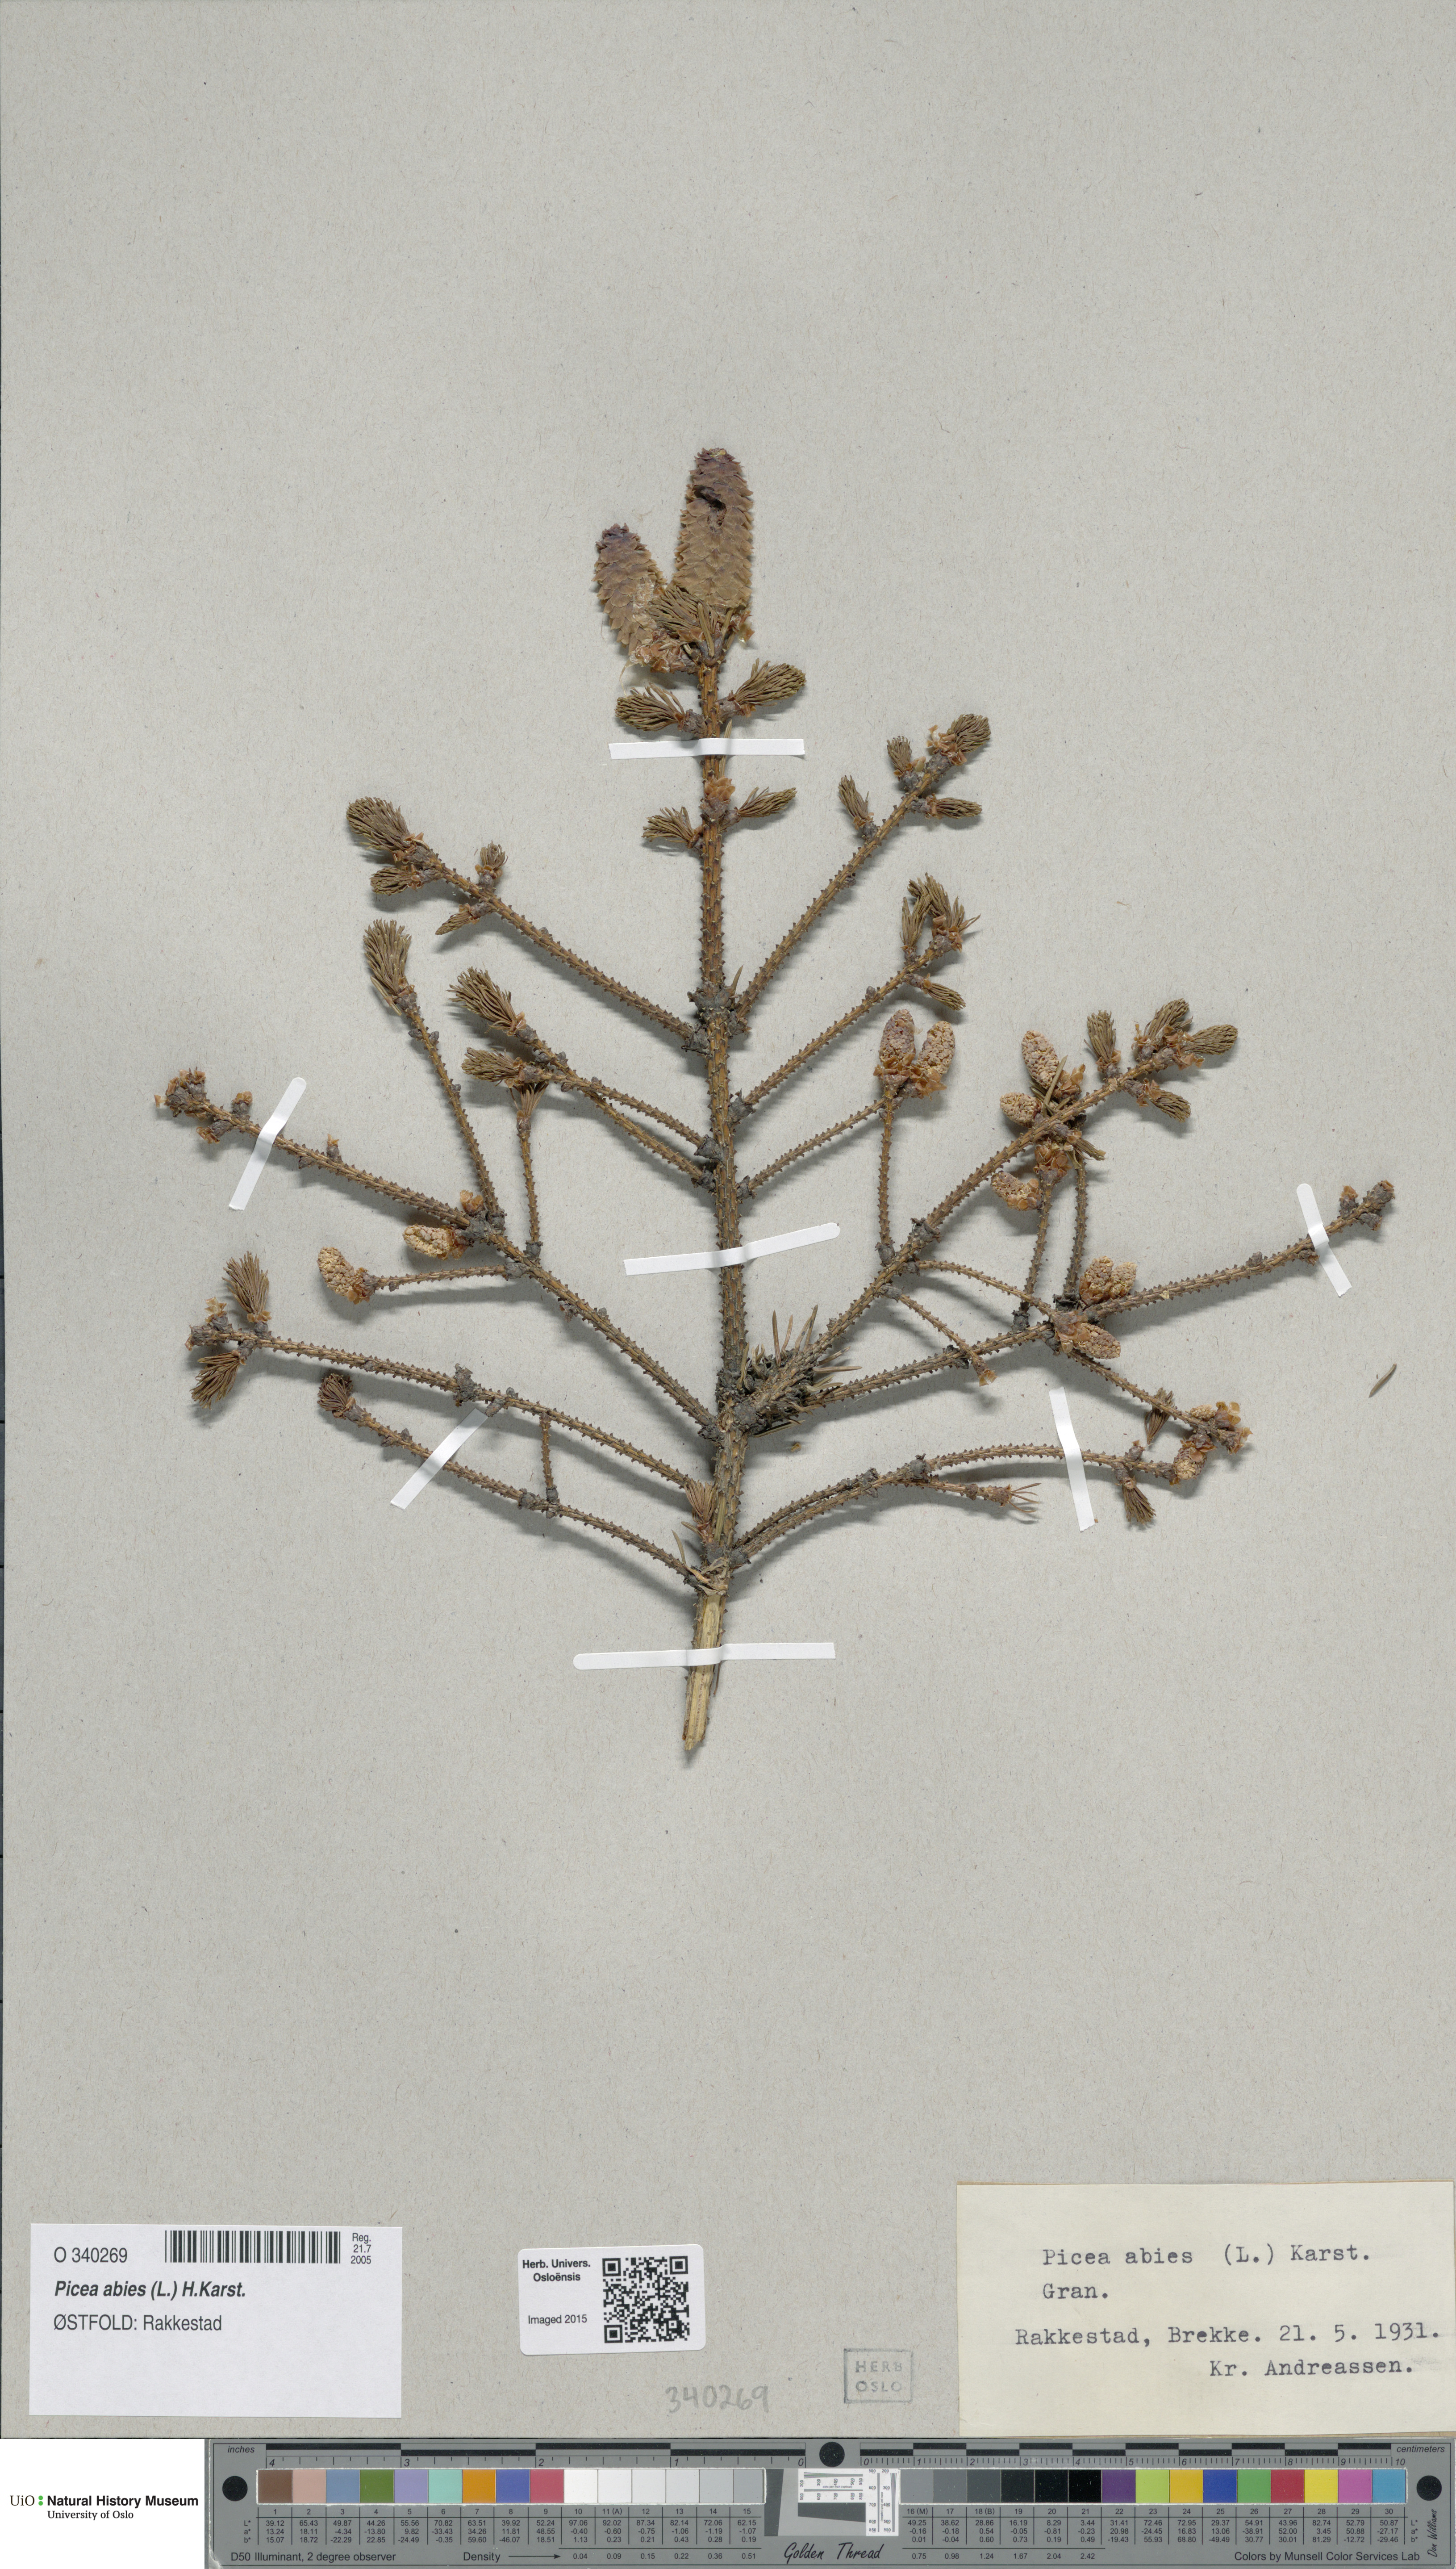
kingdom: Plantae
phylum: Tracheophyta
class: Pinopsida
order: Pinales
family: Pinaceae
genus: Picea
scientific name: Picea abies
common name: Norway spruce
